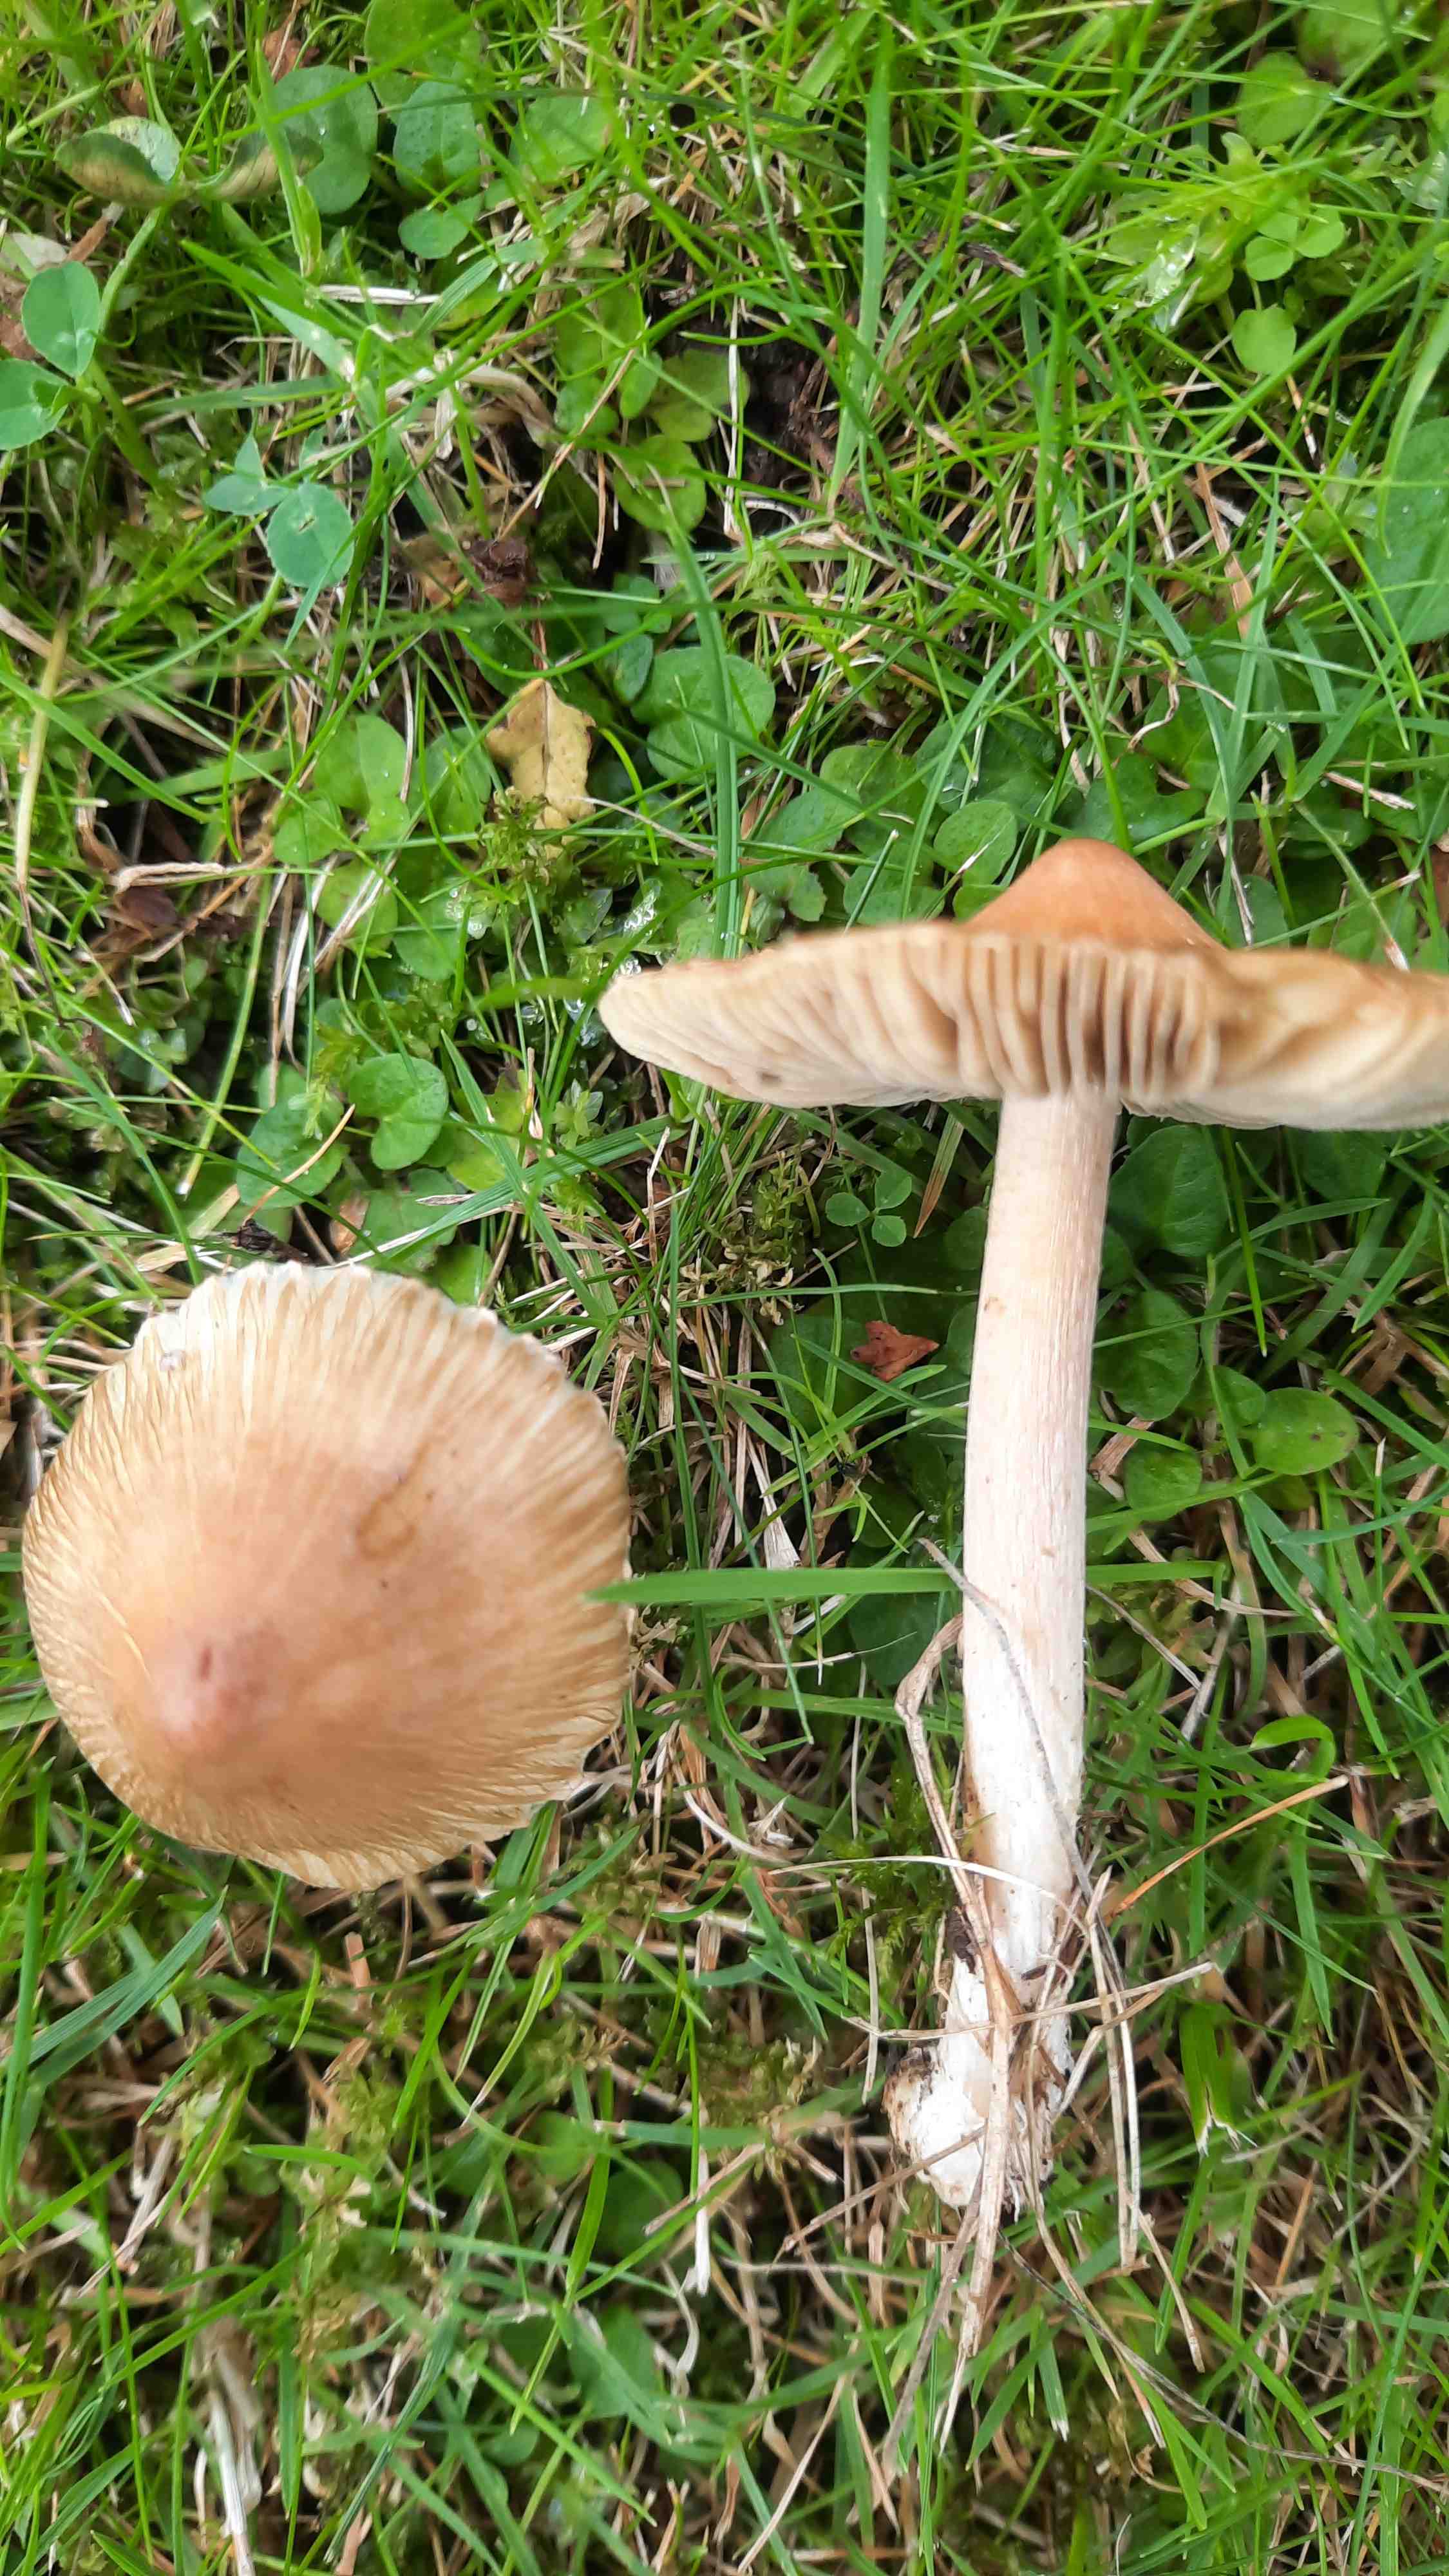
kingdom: Fungi
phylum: Basidiomycota
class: Agaricomycetes
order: Agaricales
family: Inocybaceae
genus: Inosperma
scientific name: Inosperma
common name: Trævlhat
